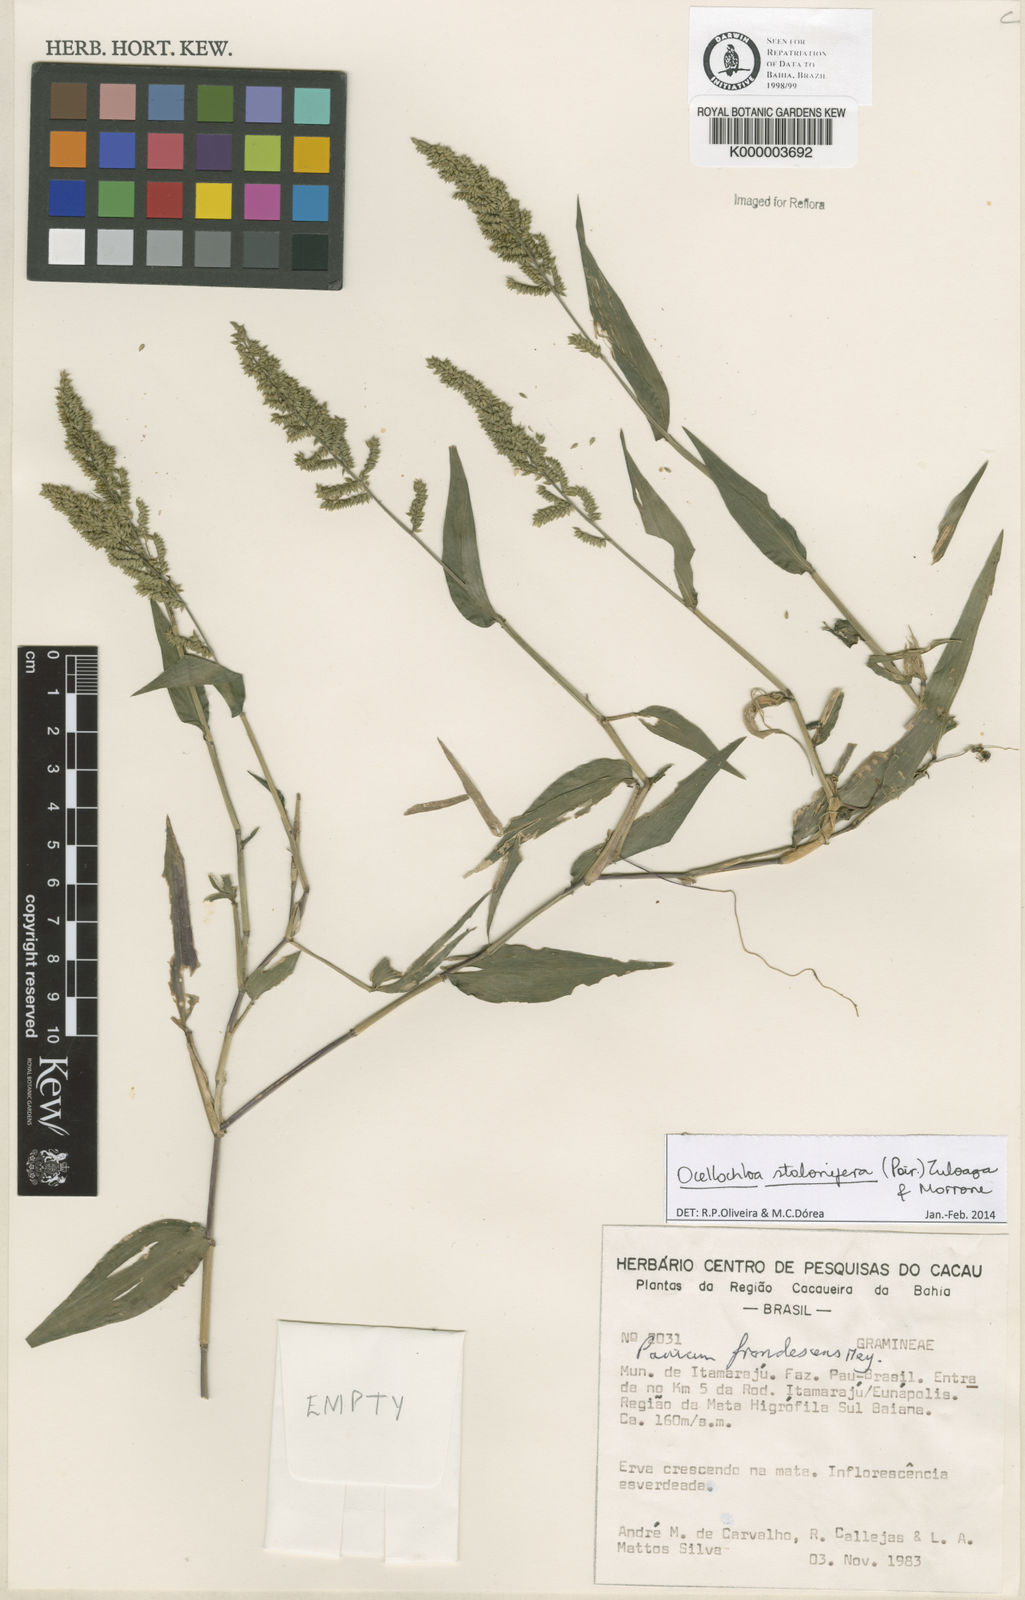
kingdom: Plantae
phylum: Tracheophyta
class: Liliopsida
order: Poales
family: Poaceae
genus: Ocellochloa
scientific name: Ocellochloa stolonifera
